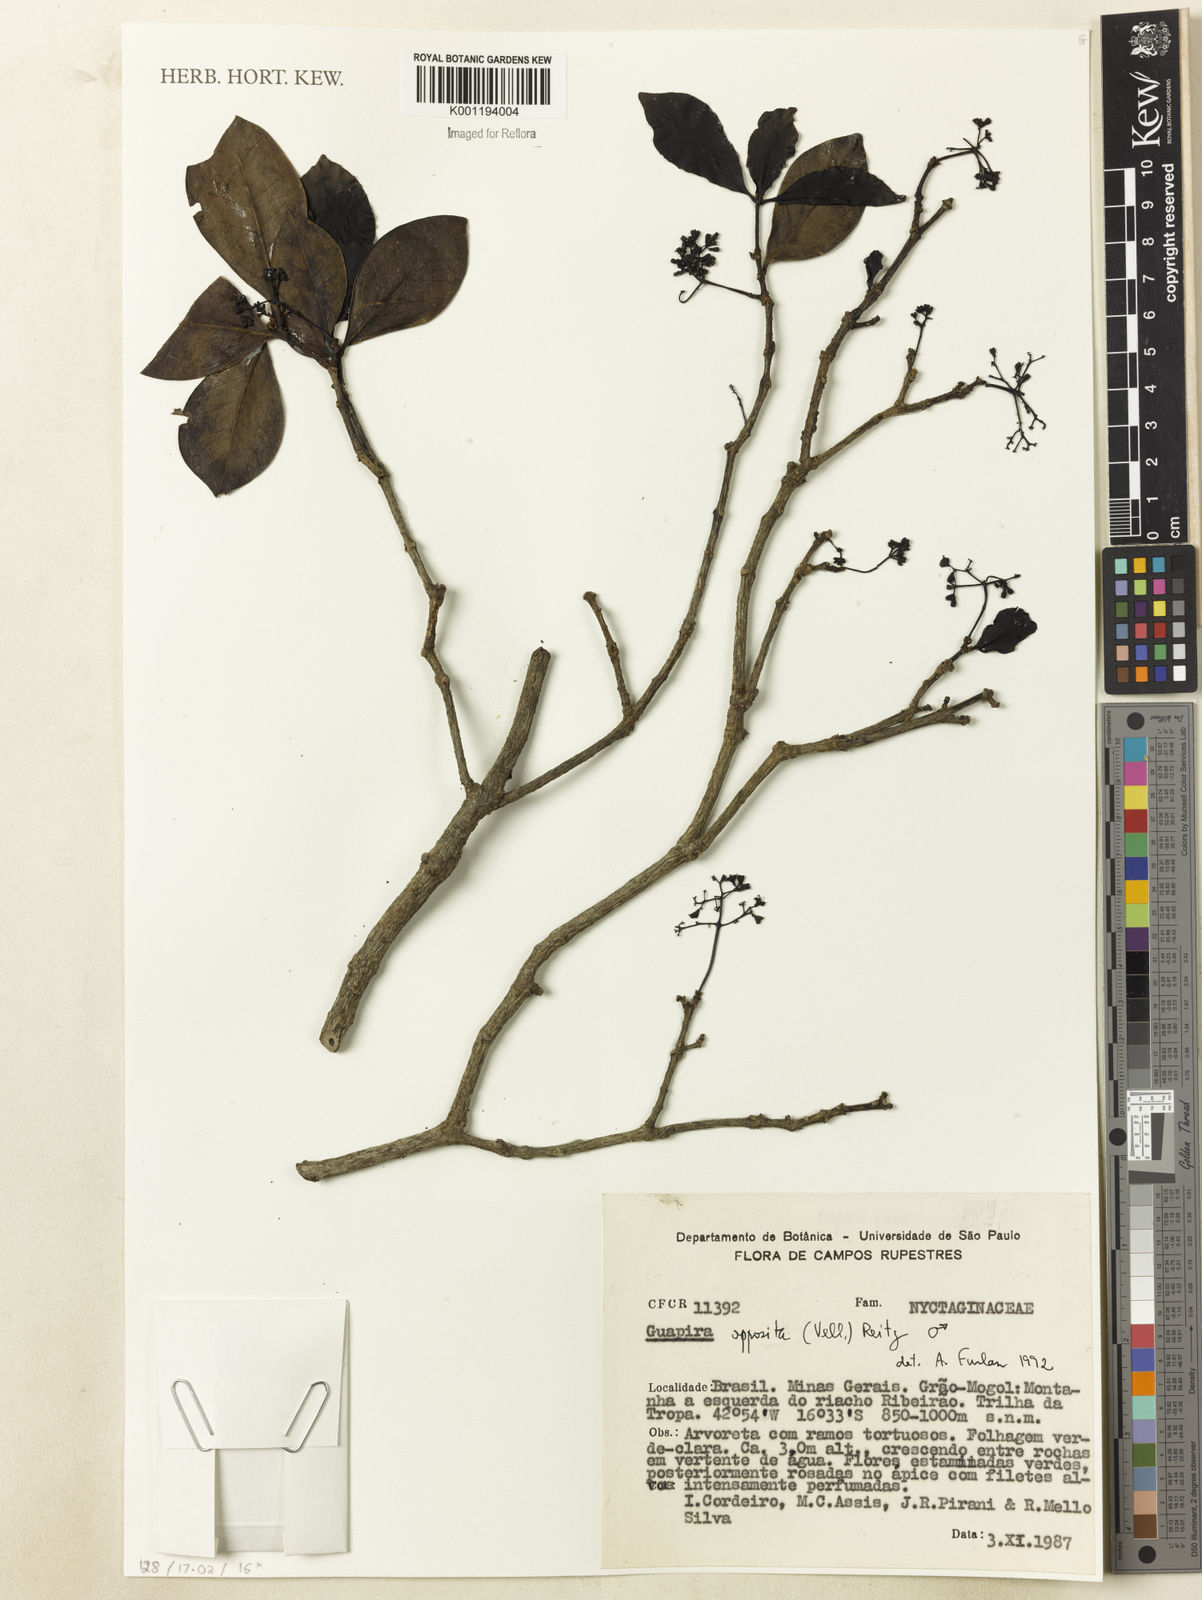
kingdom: Plantae
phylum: Tracheophyta
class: Magnoliopsida
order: Caryophyllales
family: Nyctaginaceae
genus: Guapira
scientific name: Guapira opposita
